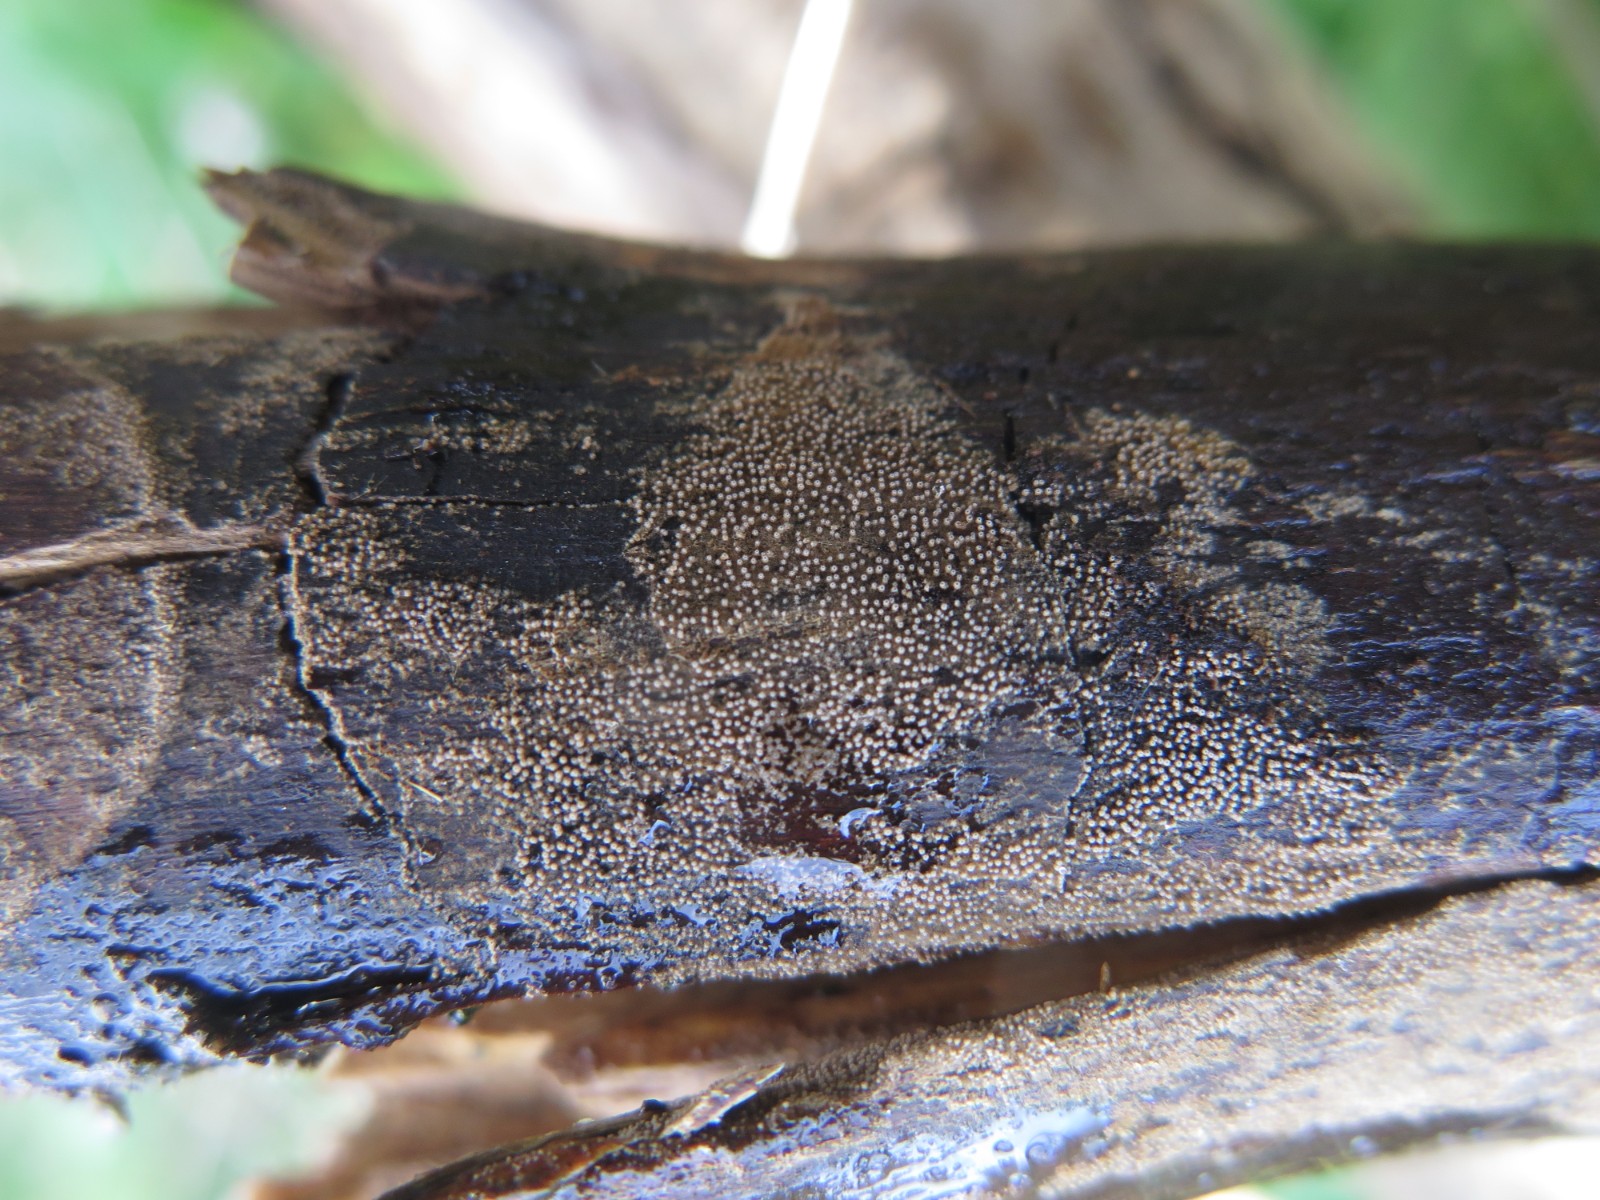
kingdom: Fungi
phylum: Basidiomycota
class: Agaricomycetes
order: Agaricales
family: Niaceae
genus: Merismodes
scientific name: Merismodes anomala
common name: almindelig læderskål
